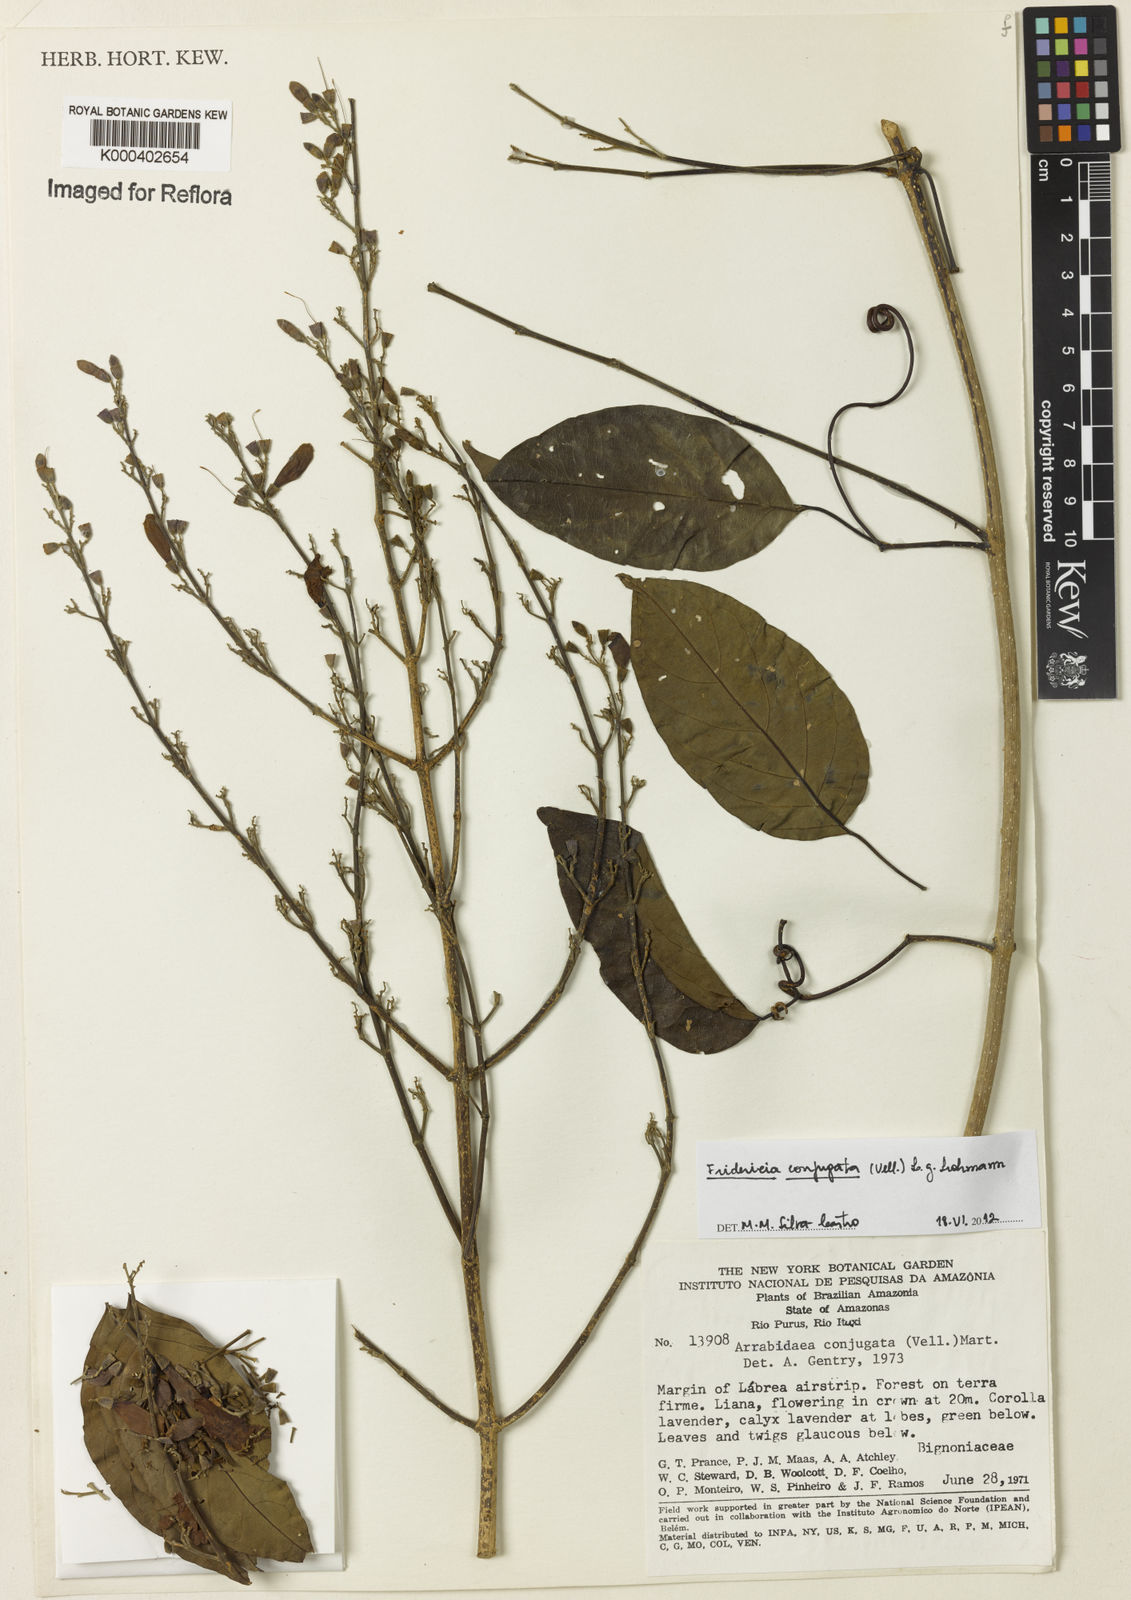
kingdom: Plantae
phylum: Tracheophyta
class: Magnoliopsida
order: Lamiales
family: Bignoniaceae
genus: Fridericia
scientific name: Fridericia conjugata
